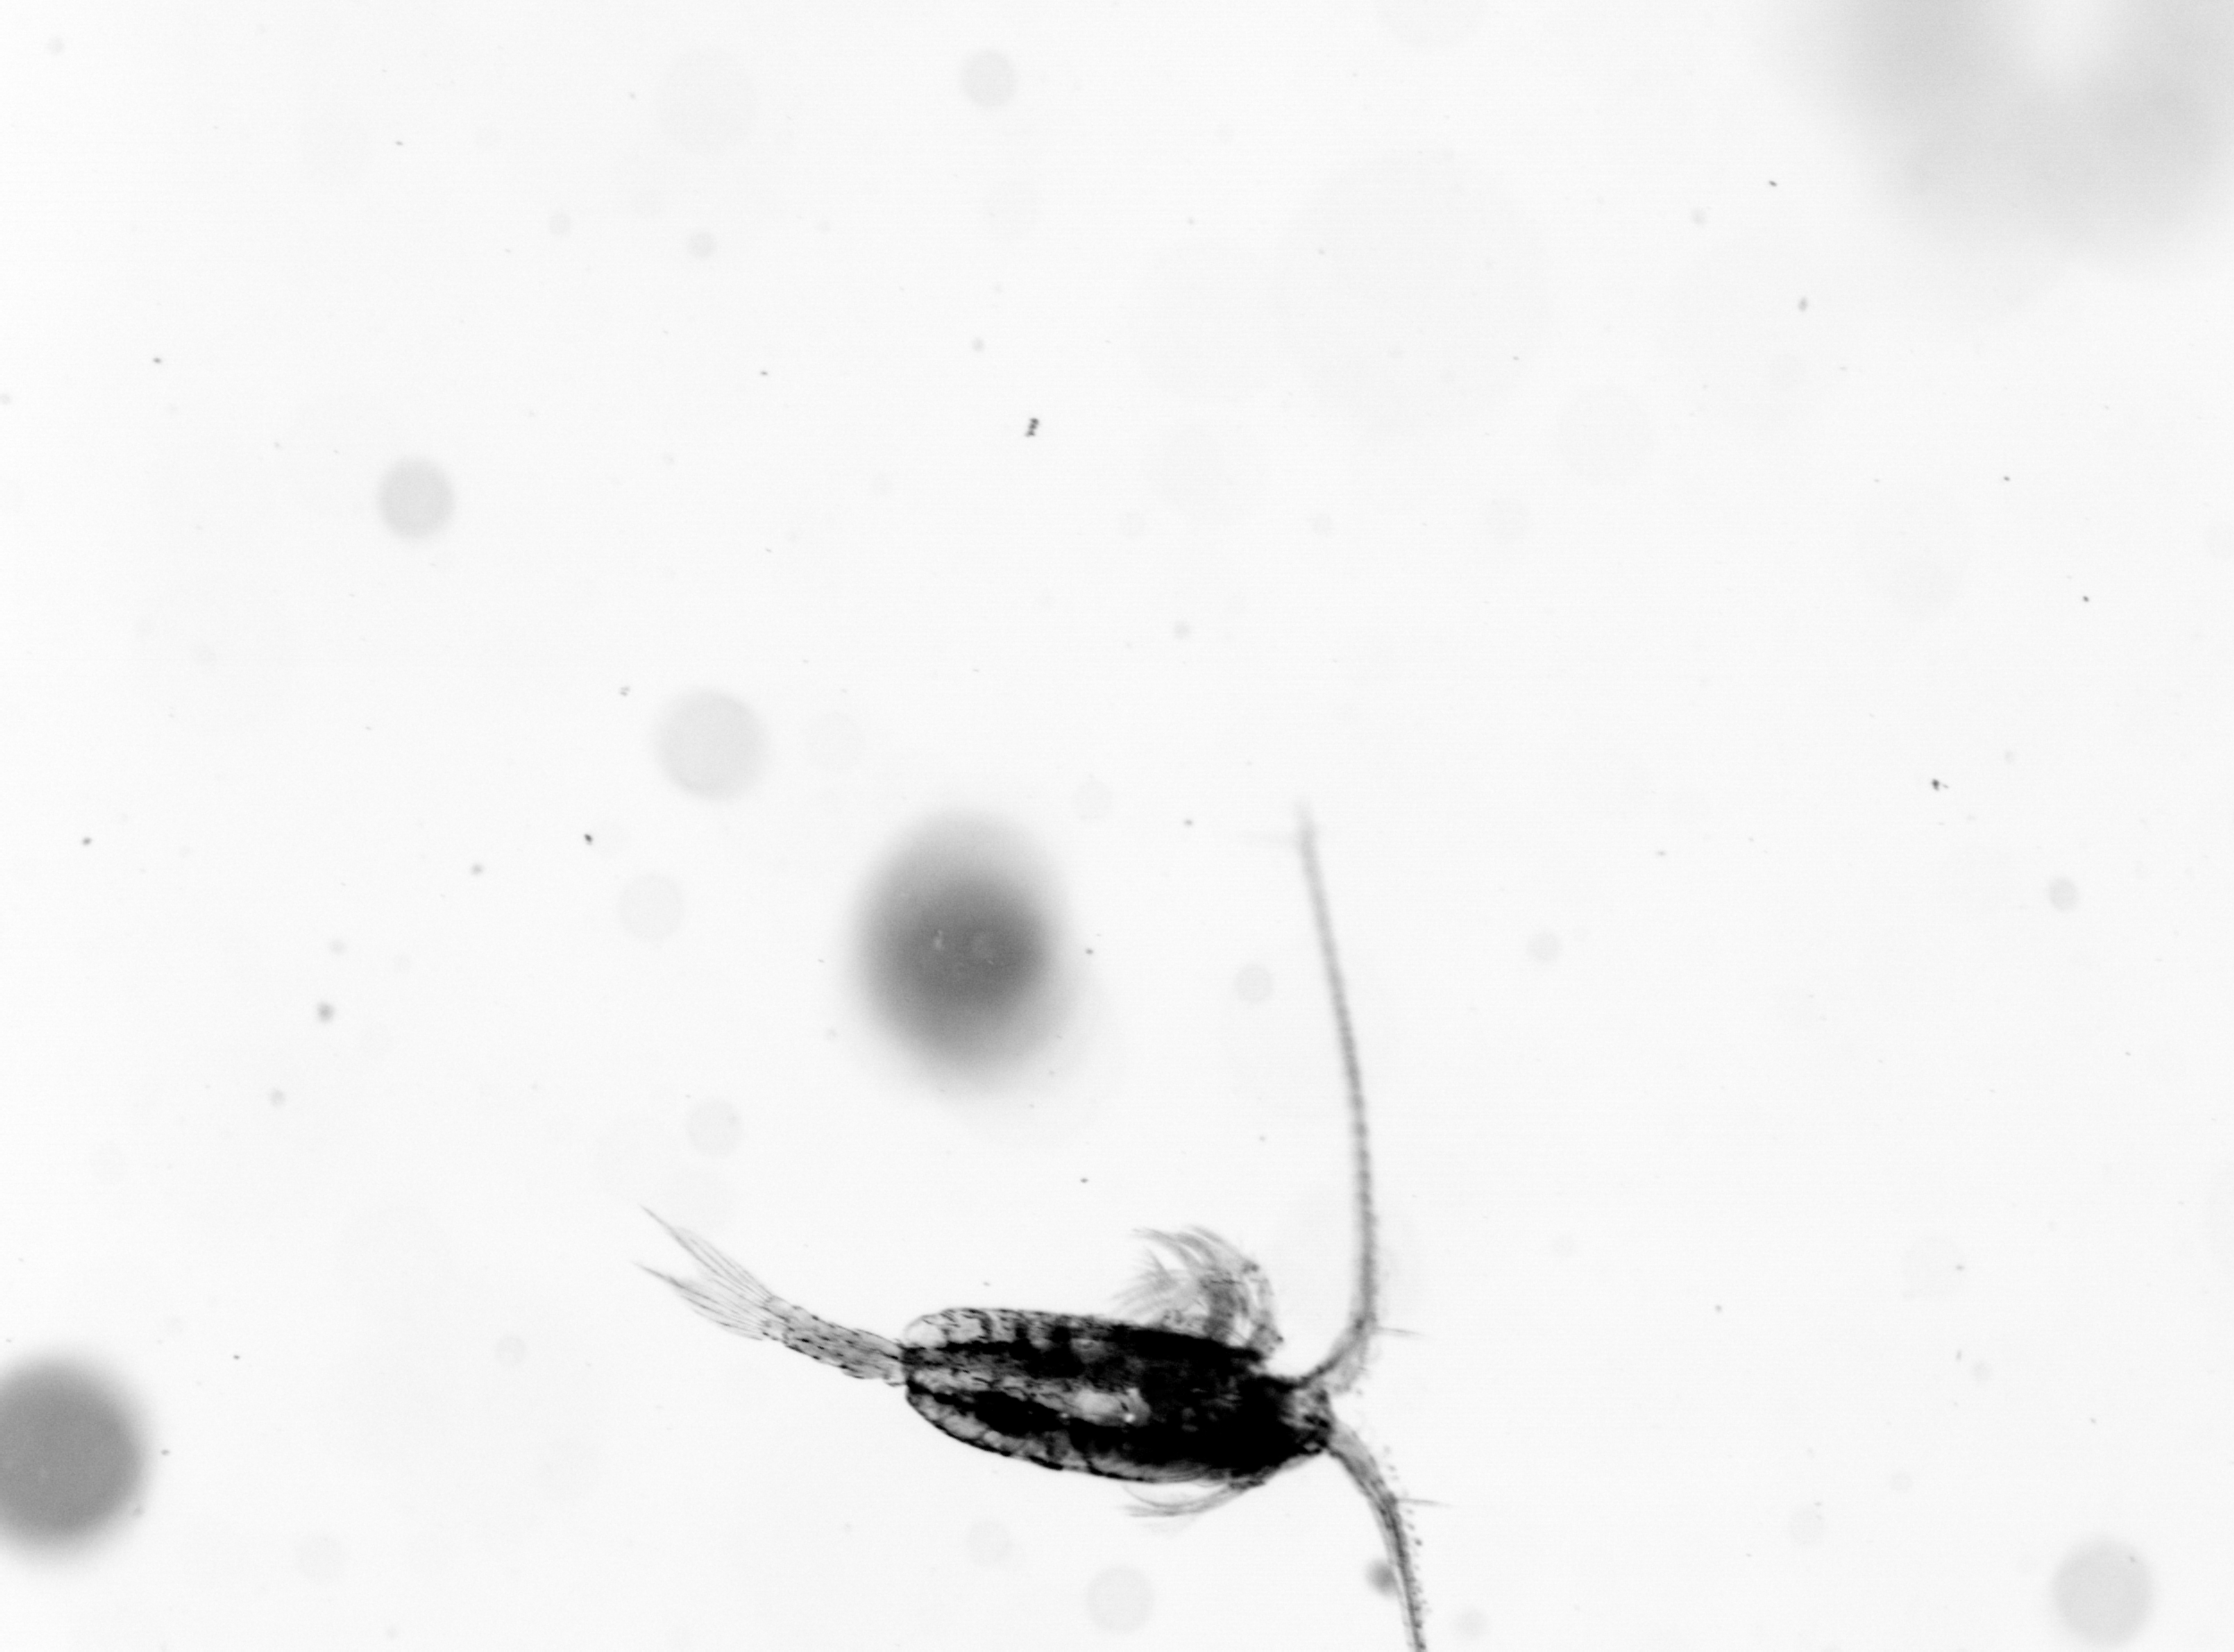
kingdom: Animalia
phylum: Arthropoda
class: Copepoda
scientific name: Copepoda
